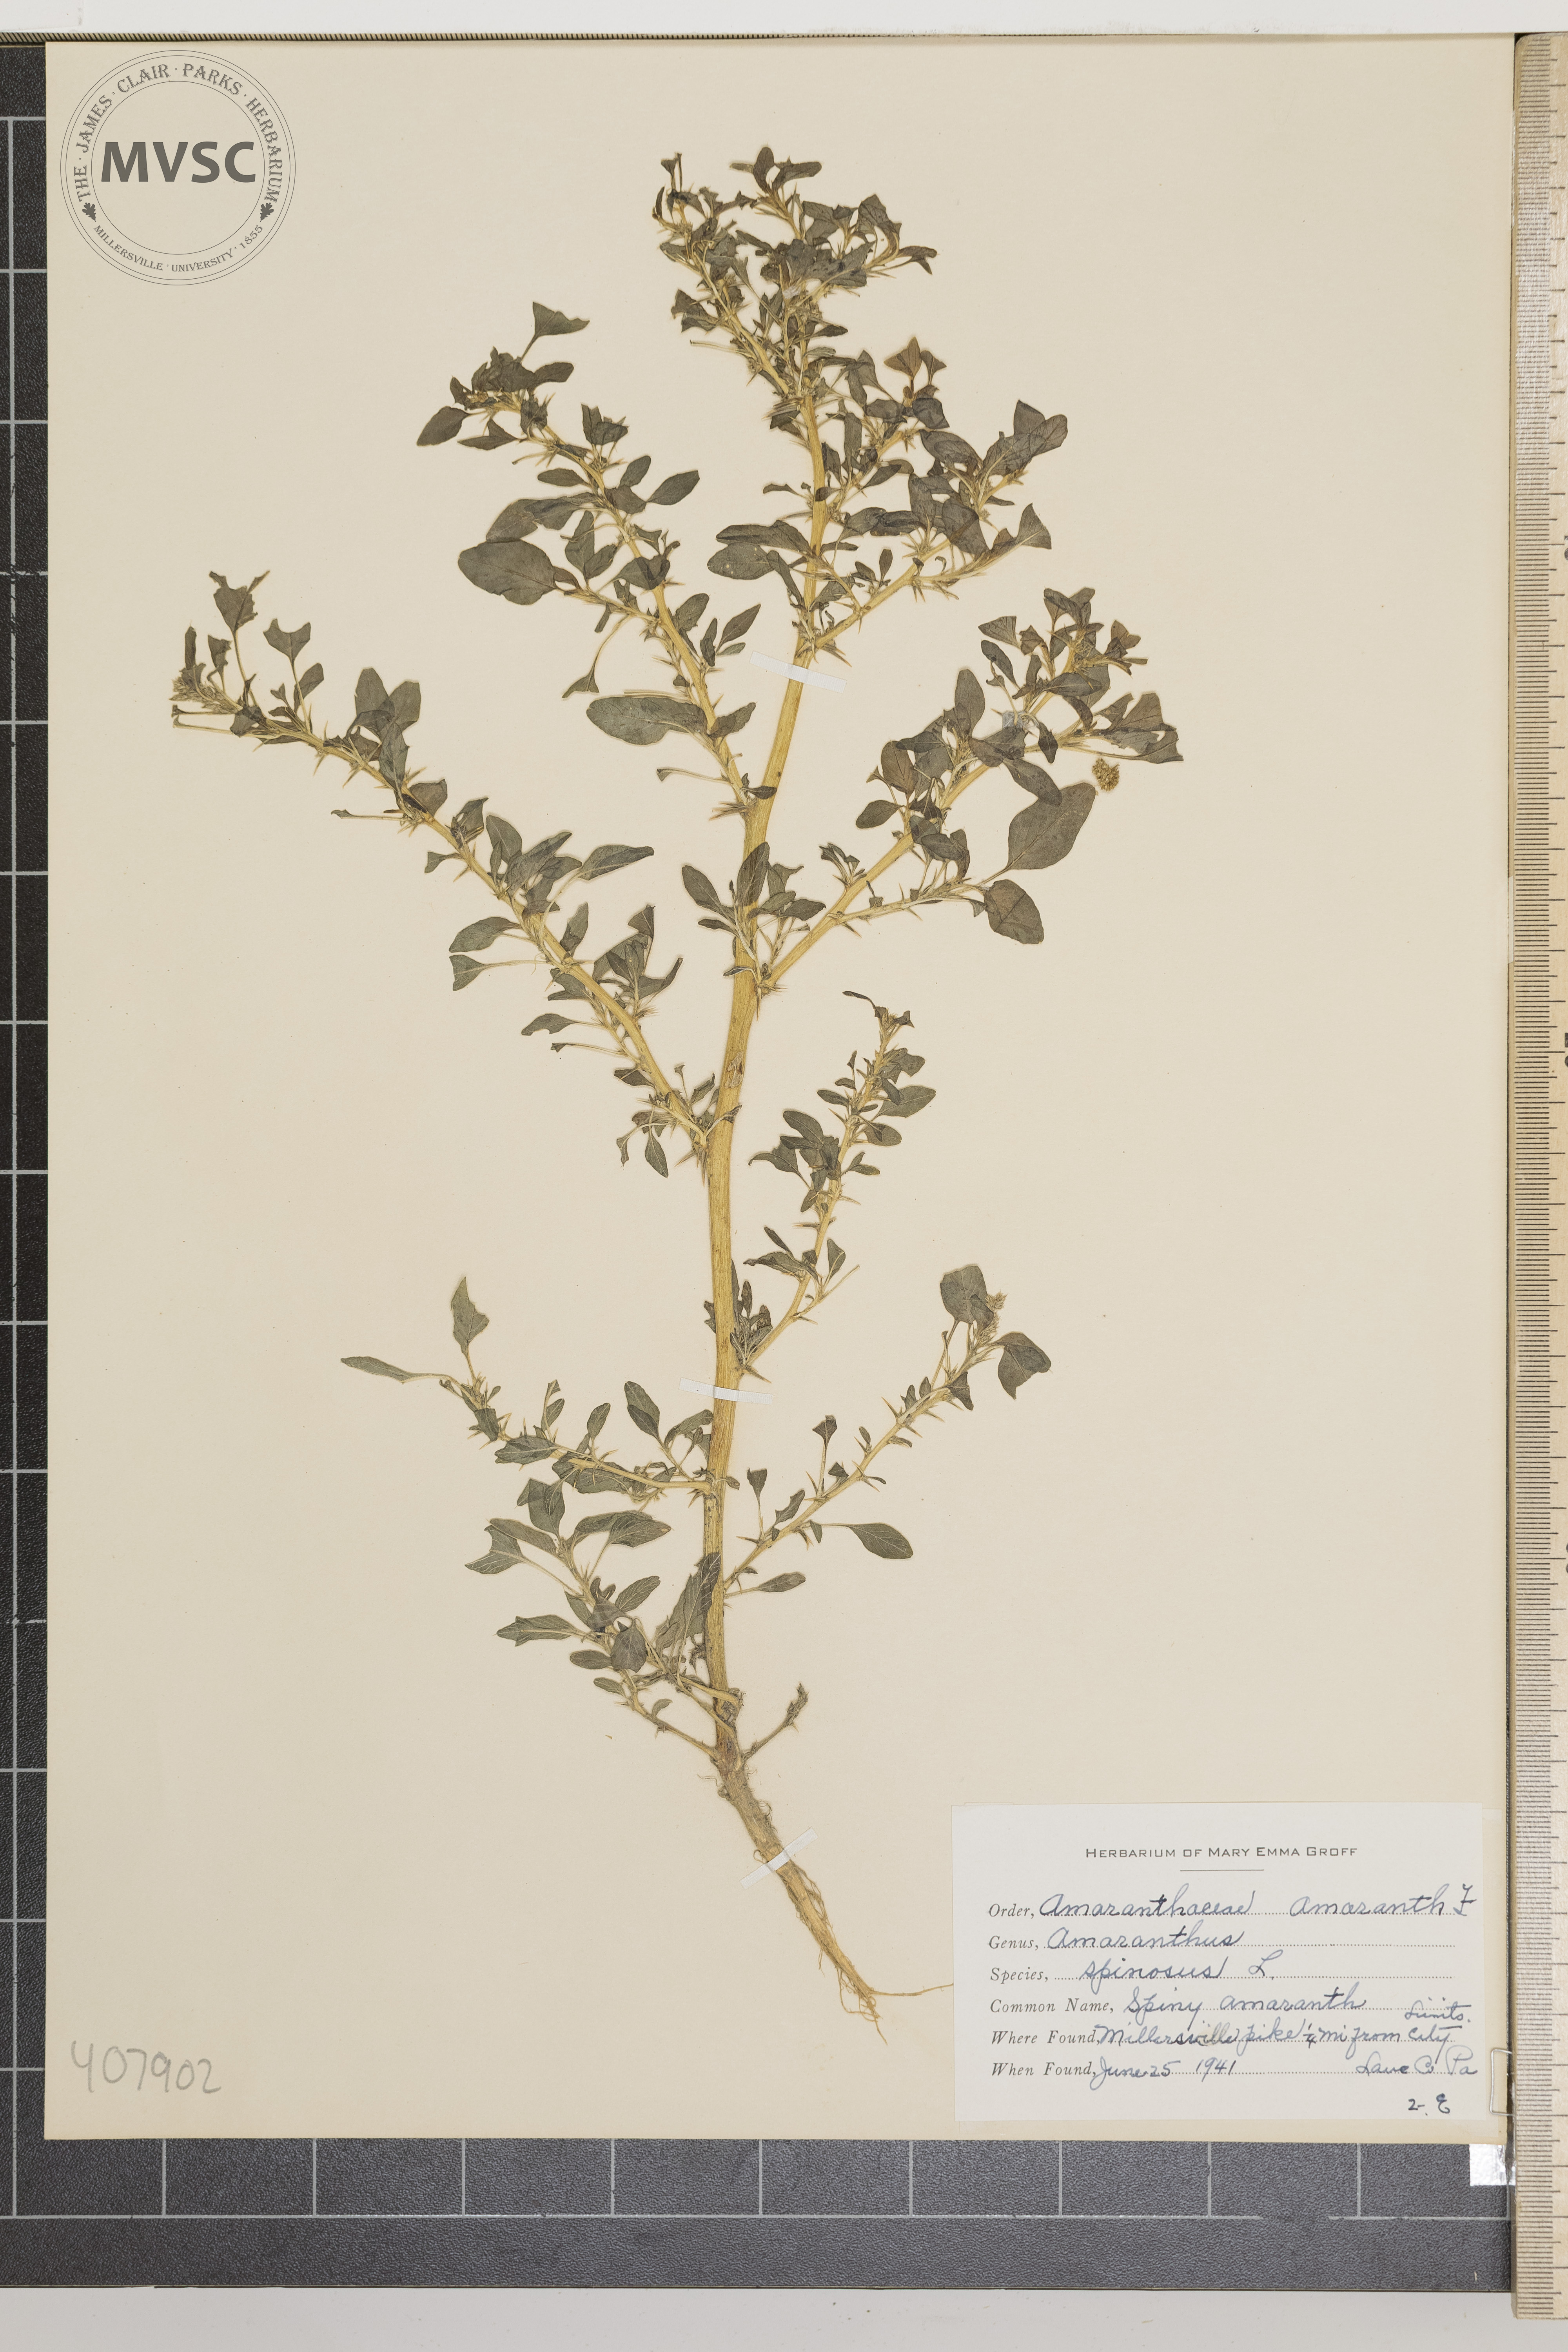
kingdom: Plantae
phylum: Tracheophyta
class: Magnoliopsida
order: Caryophyllales
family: Amaranthaceae
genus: Amaranthus
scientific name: Amaranthus spinosus
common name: Spiny amaranth
